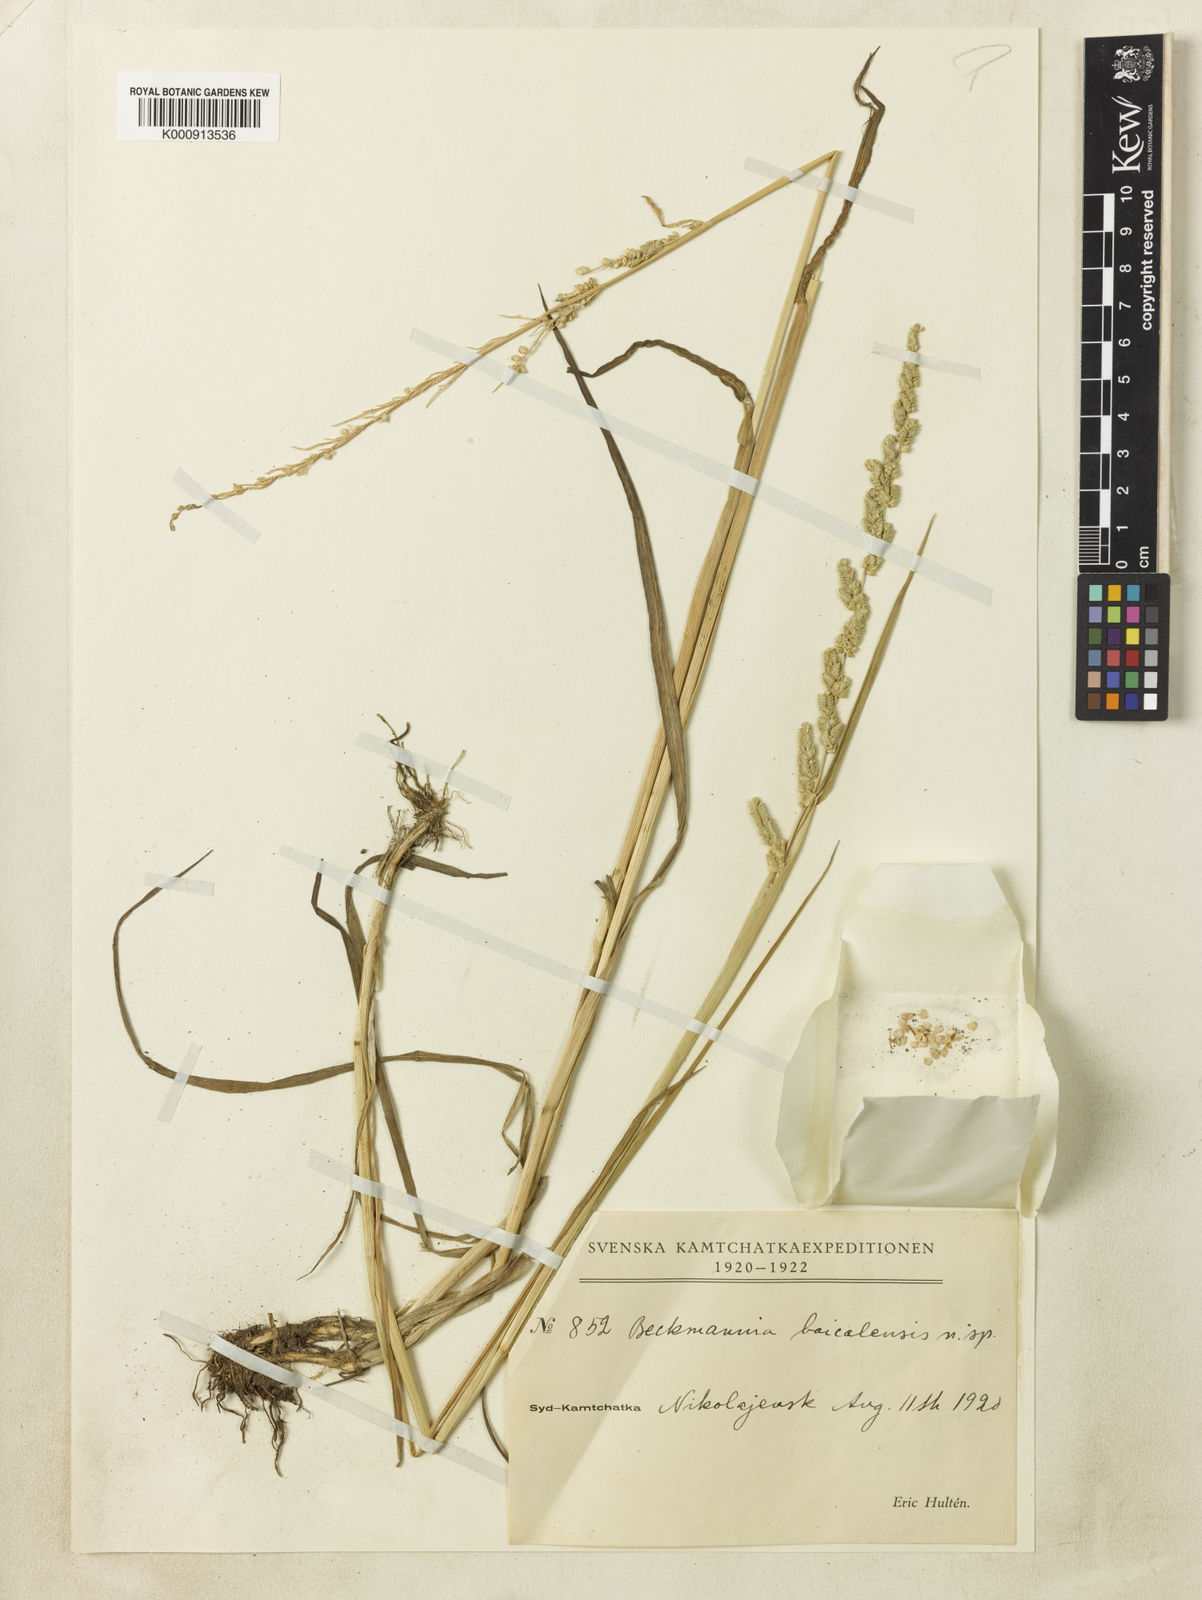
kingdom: Plantae
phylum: Tracheophyta
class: Liliopsida
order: Poales
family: Poaceae
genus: Beckmannia
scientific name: Beckmannia syzigachne
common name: American slough-grass
